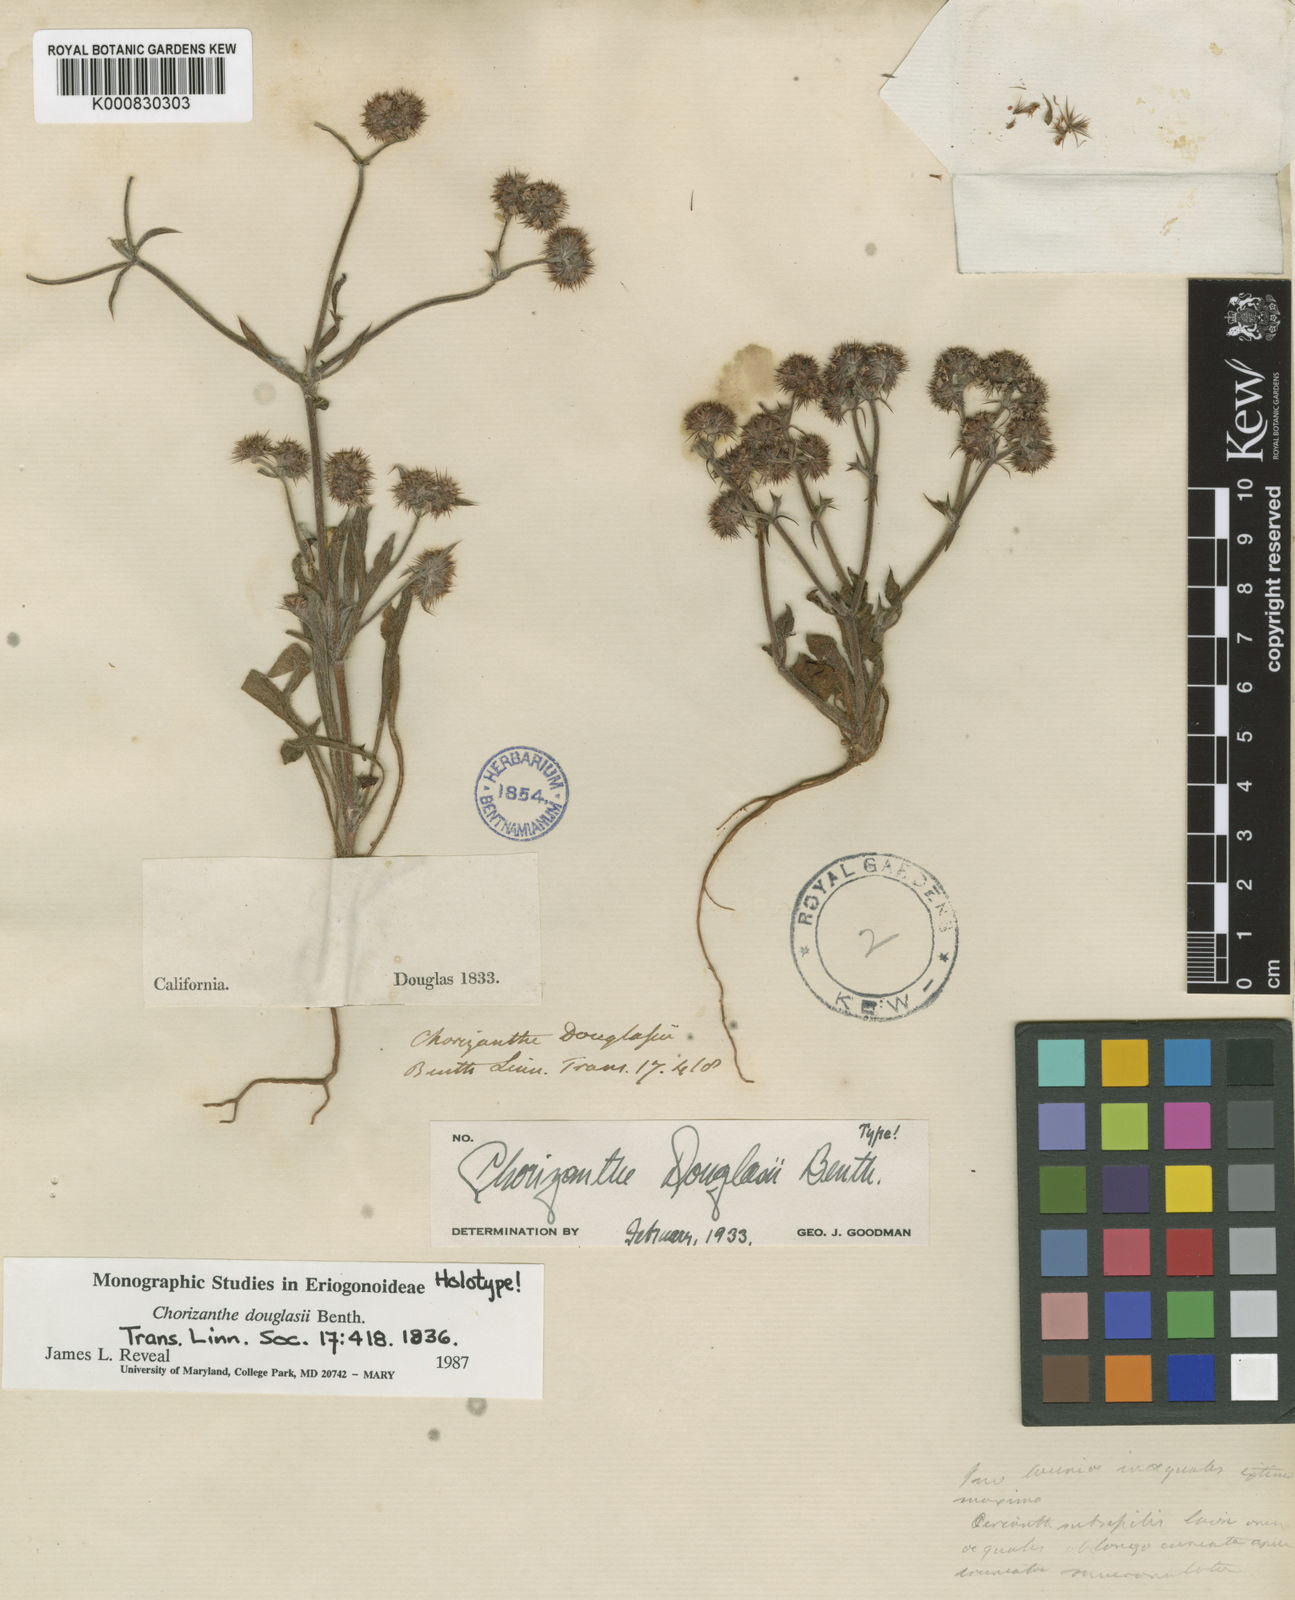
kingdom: Plantae
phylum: Tracheophyta
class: Magnoliopsida
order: Caryophyllales
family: Polygonaceae
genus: Chorizanthe
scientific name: Chorizanthe douglasii
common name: Douglas's spineflower
